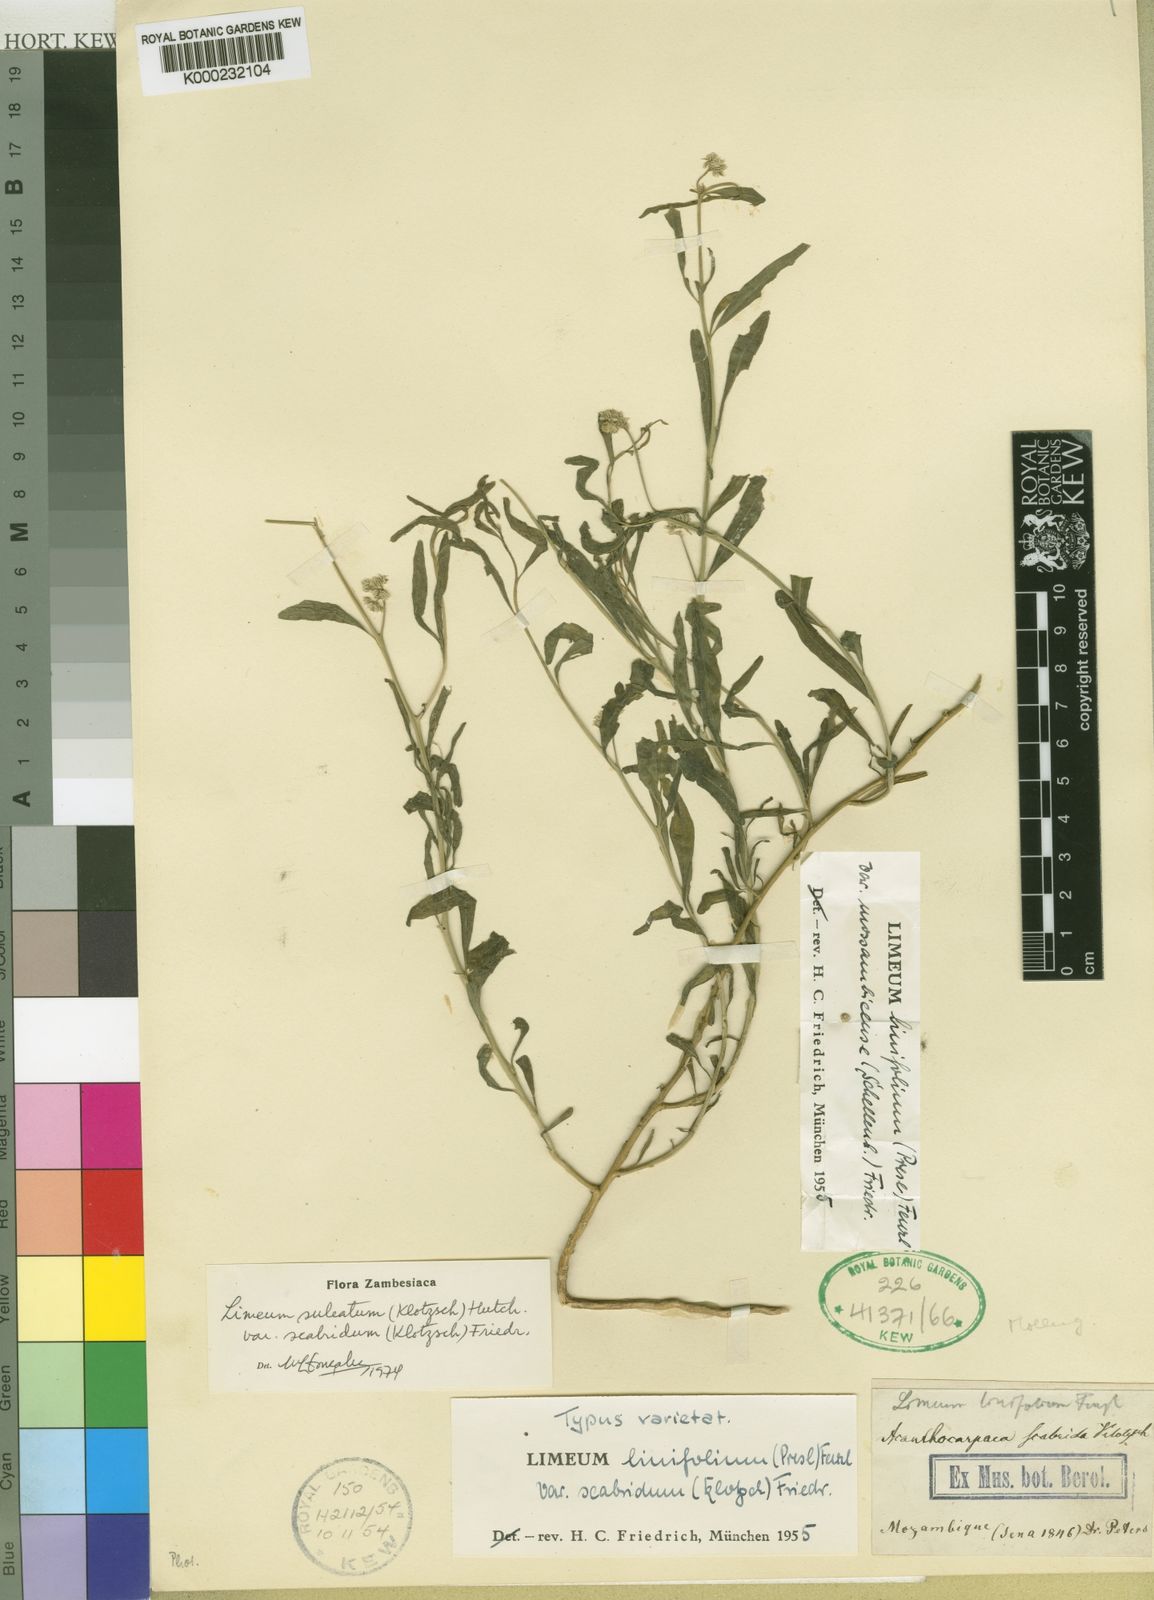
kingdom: Plantae
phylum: Tracheophyta
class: Magnoliopsida
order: Caryophyllales
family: Limeaceae
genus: Limeum
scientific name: Limeum sulcatum
